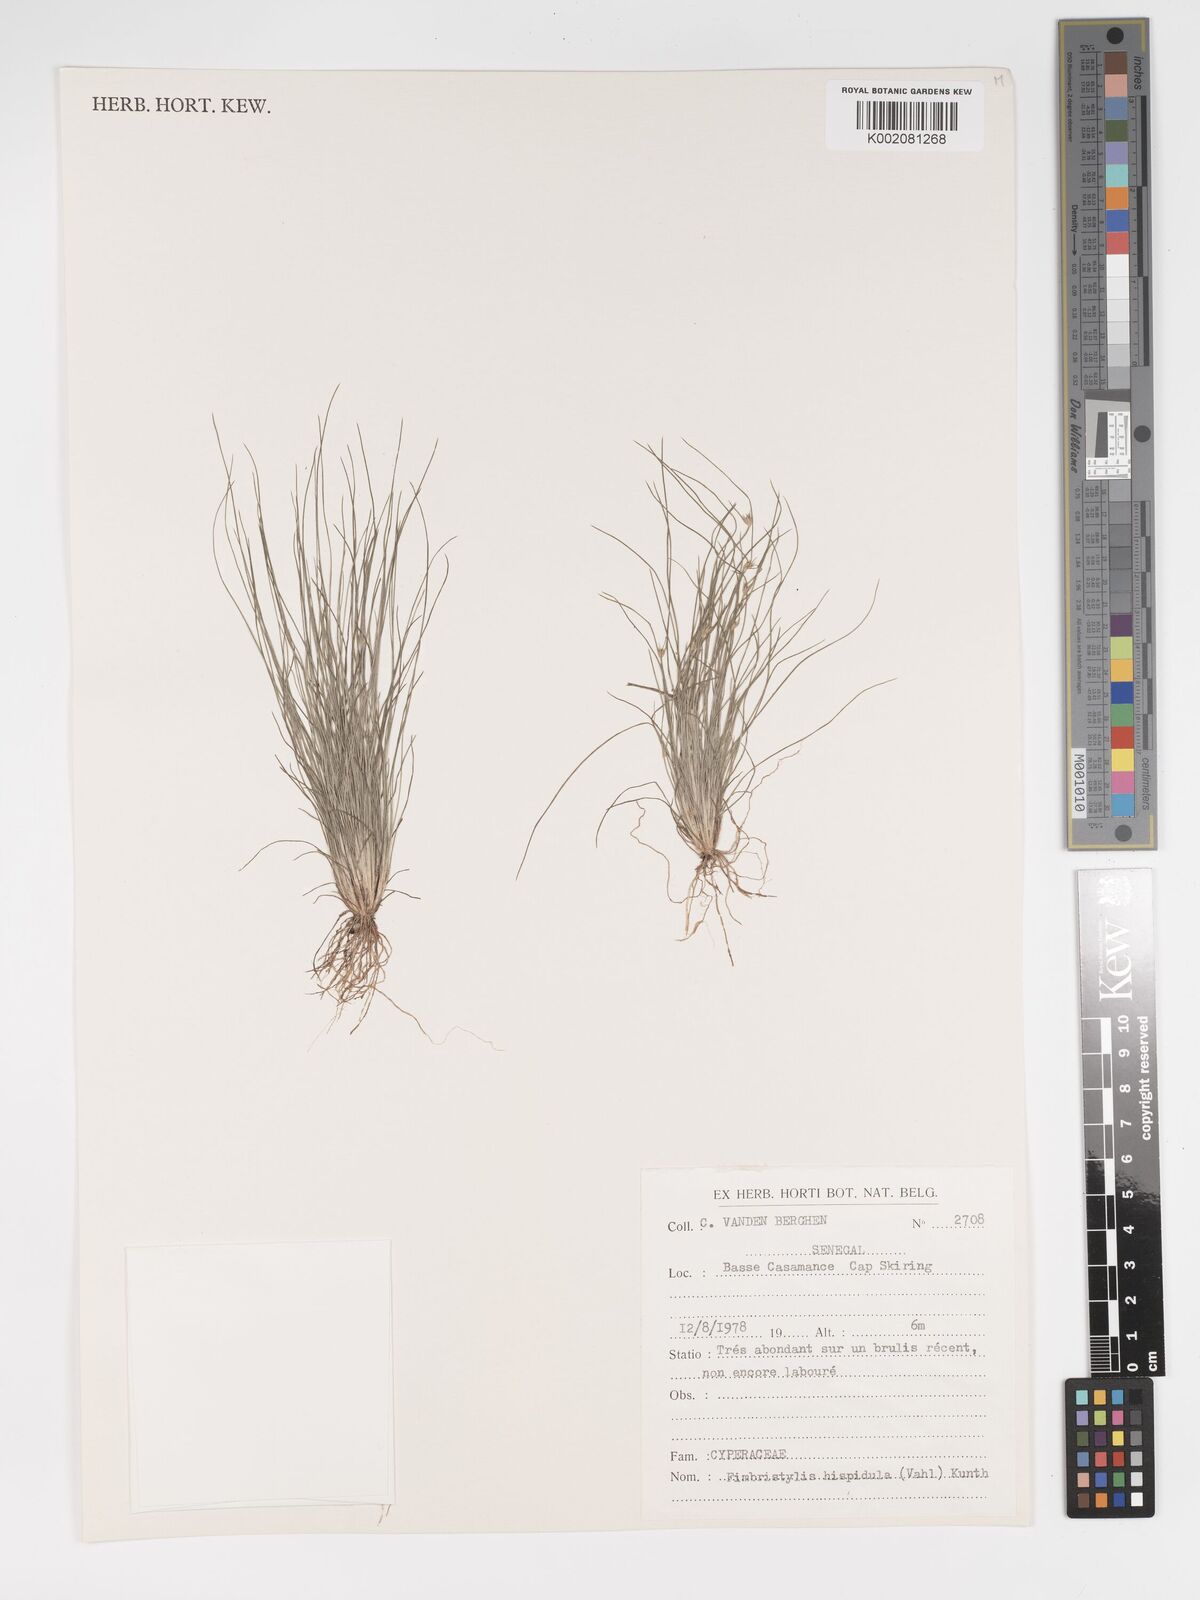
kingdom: Plantae
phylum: Tracheophyta
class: Liliopsida
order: Poales
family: Cyperaceae
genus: Bulbostylis
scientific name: Bulbostylis hispidula
